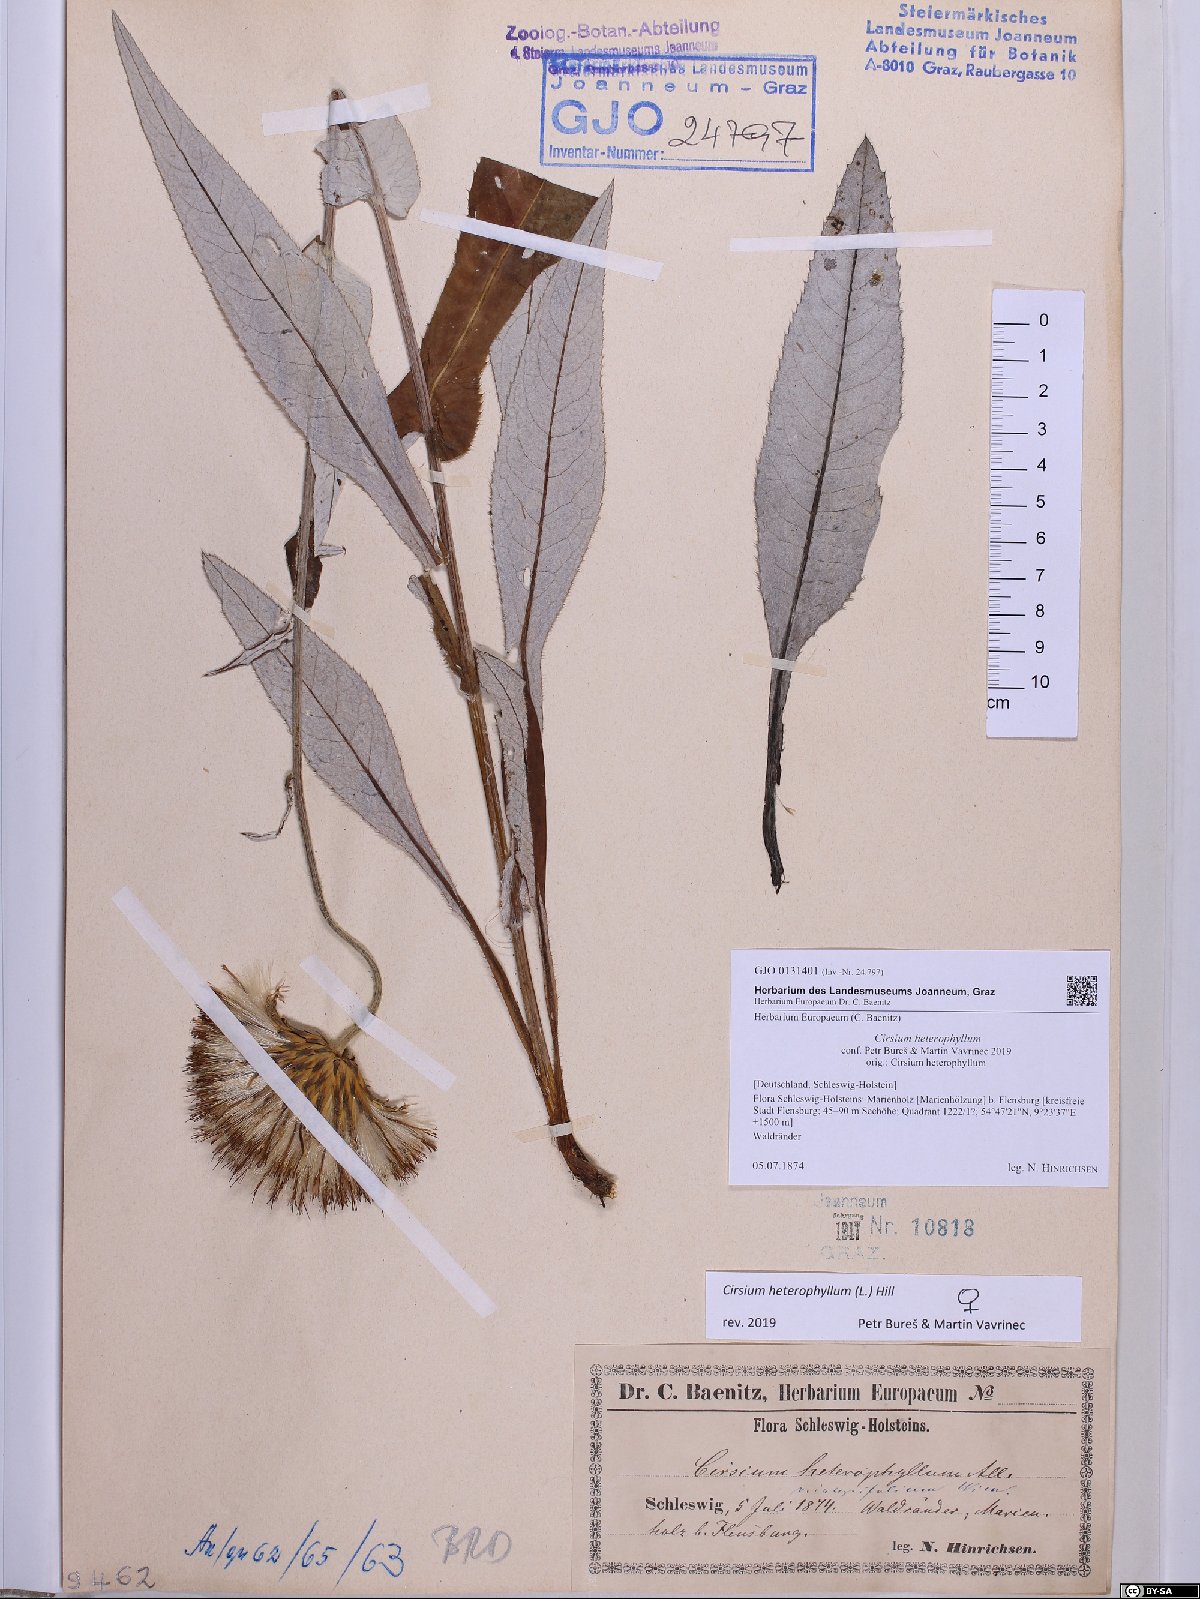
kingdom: Plantae
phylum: Tracheophyta
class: Magnoliopsida
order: Asterales
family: Asteraceae
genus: Cirsium
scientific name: Cirsium heterophyllum
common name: Melancholy thistle
